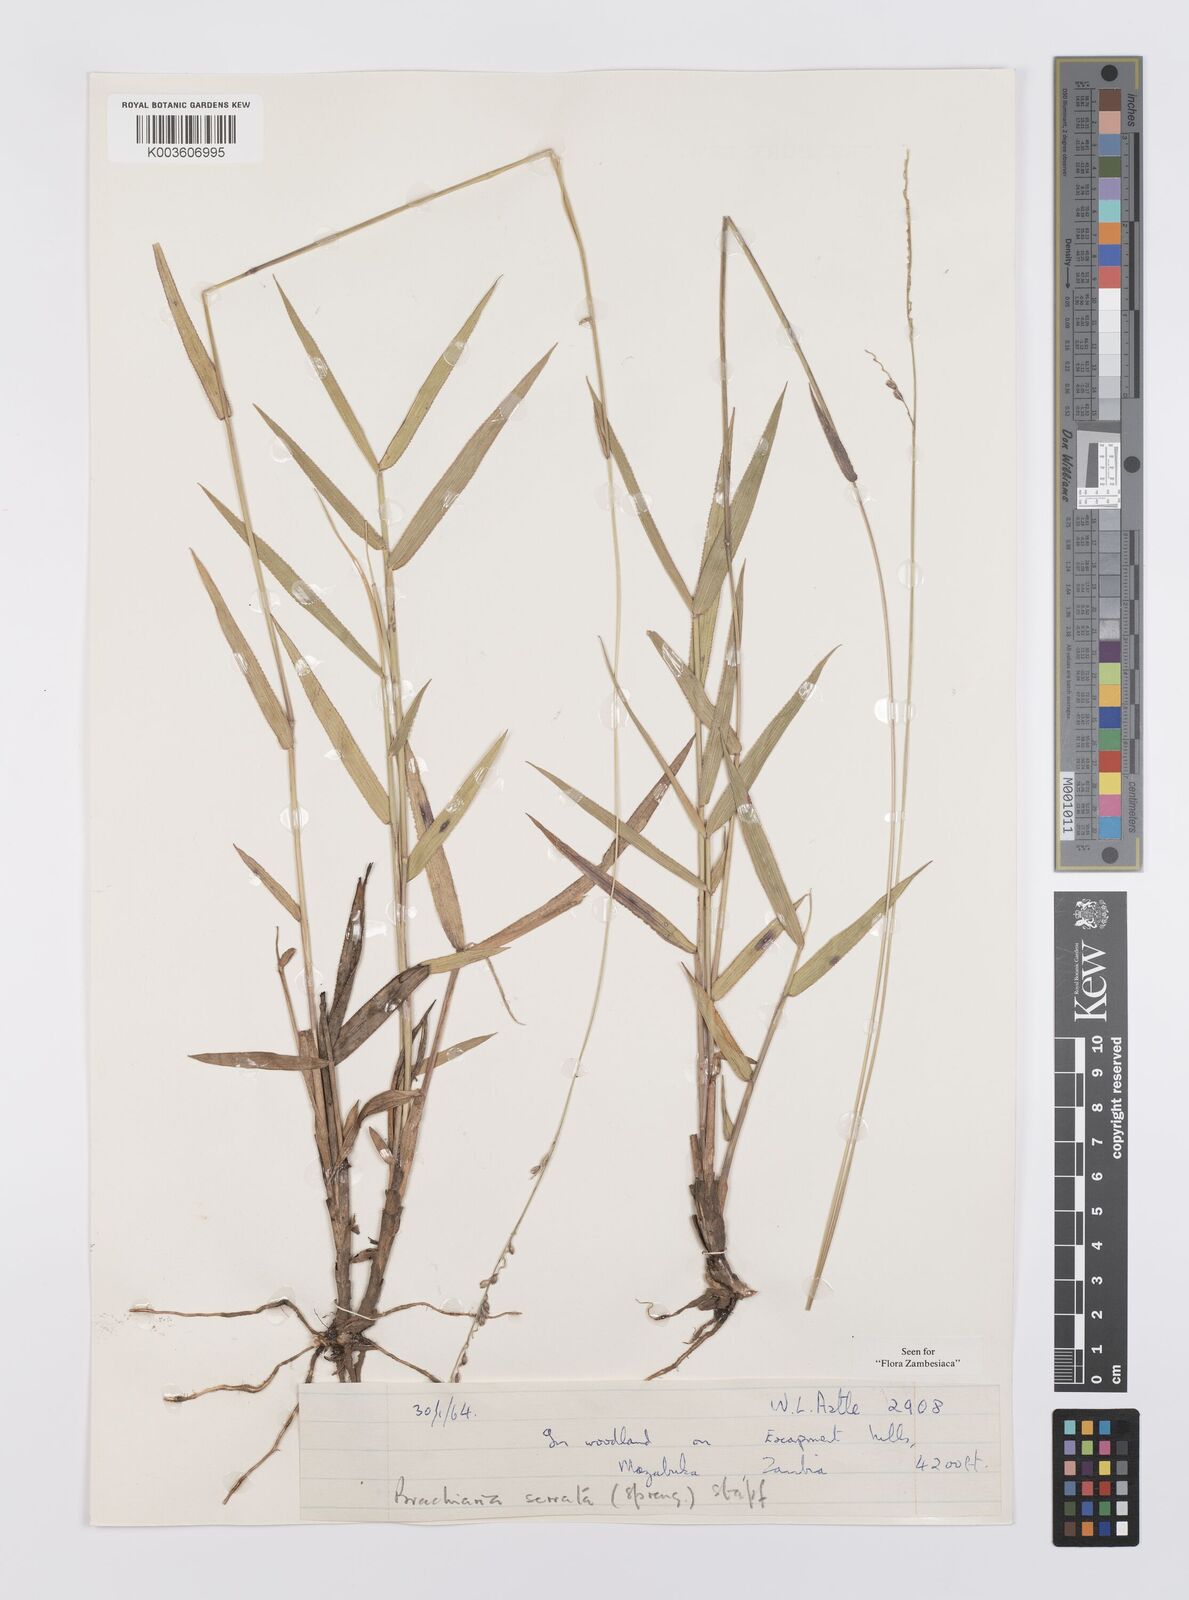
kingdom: Plantae
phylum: Tracheophyta
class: Liliopsida
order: Poales
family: Poaceae
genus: Urochloa
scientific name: Urochloa serrata
